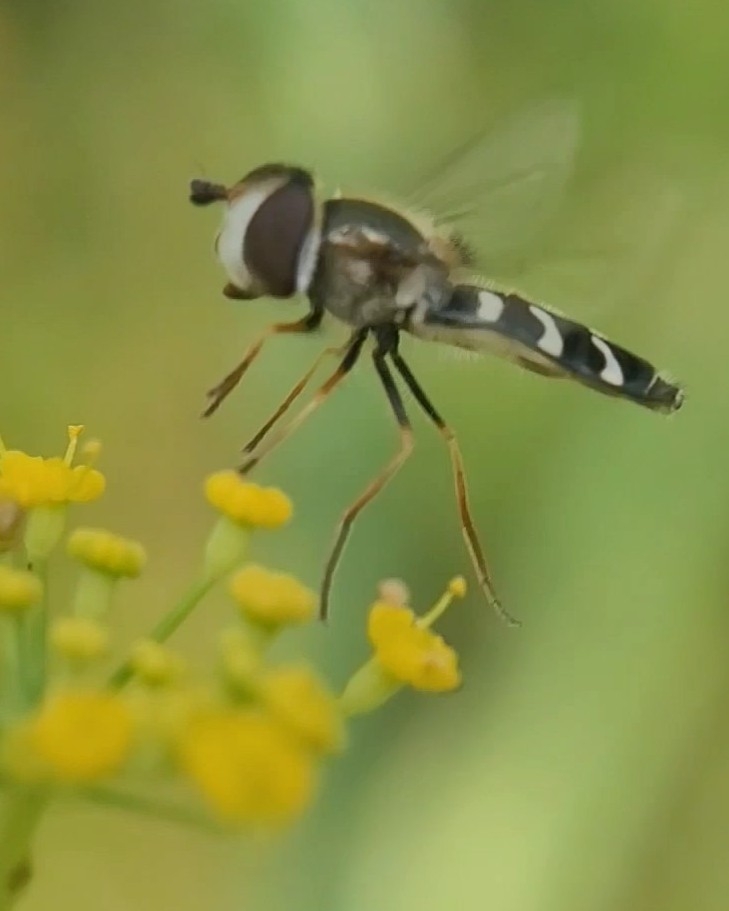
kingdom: Animalia
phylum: Arthropoda
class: Insecta
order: Diptera
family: Syrphidae
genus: Scaeva
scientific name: Scaeva pyrastri
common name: Hvidplettet agersvirreflue
